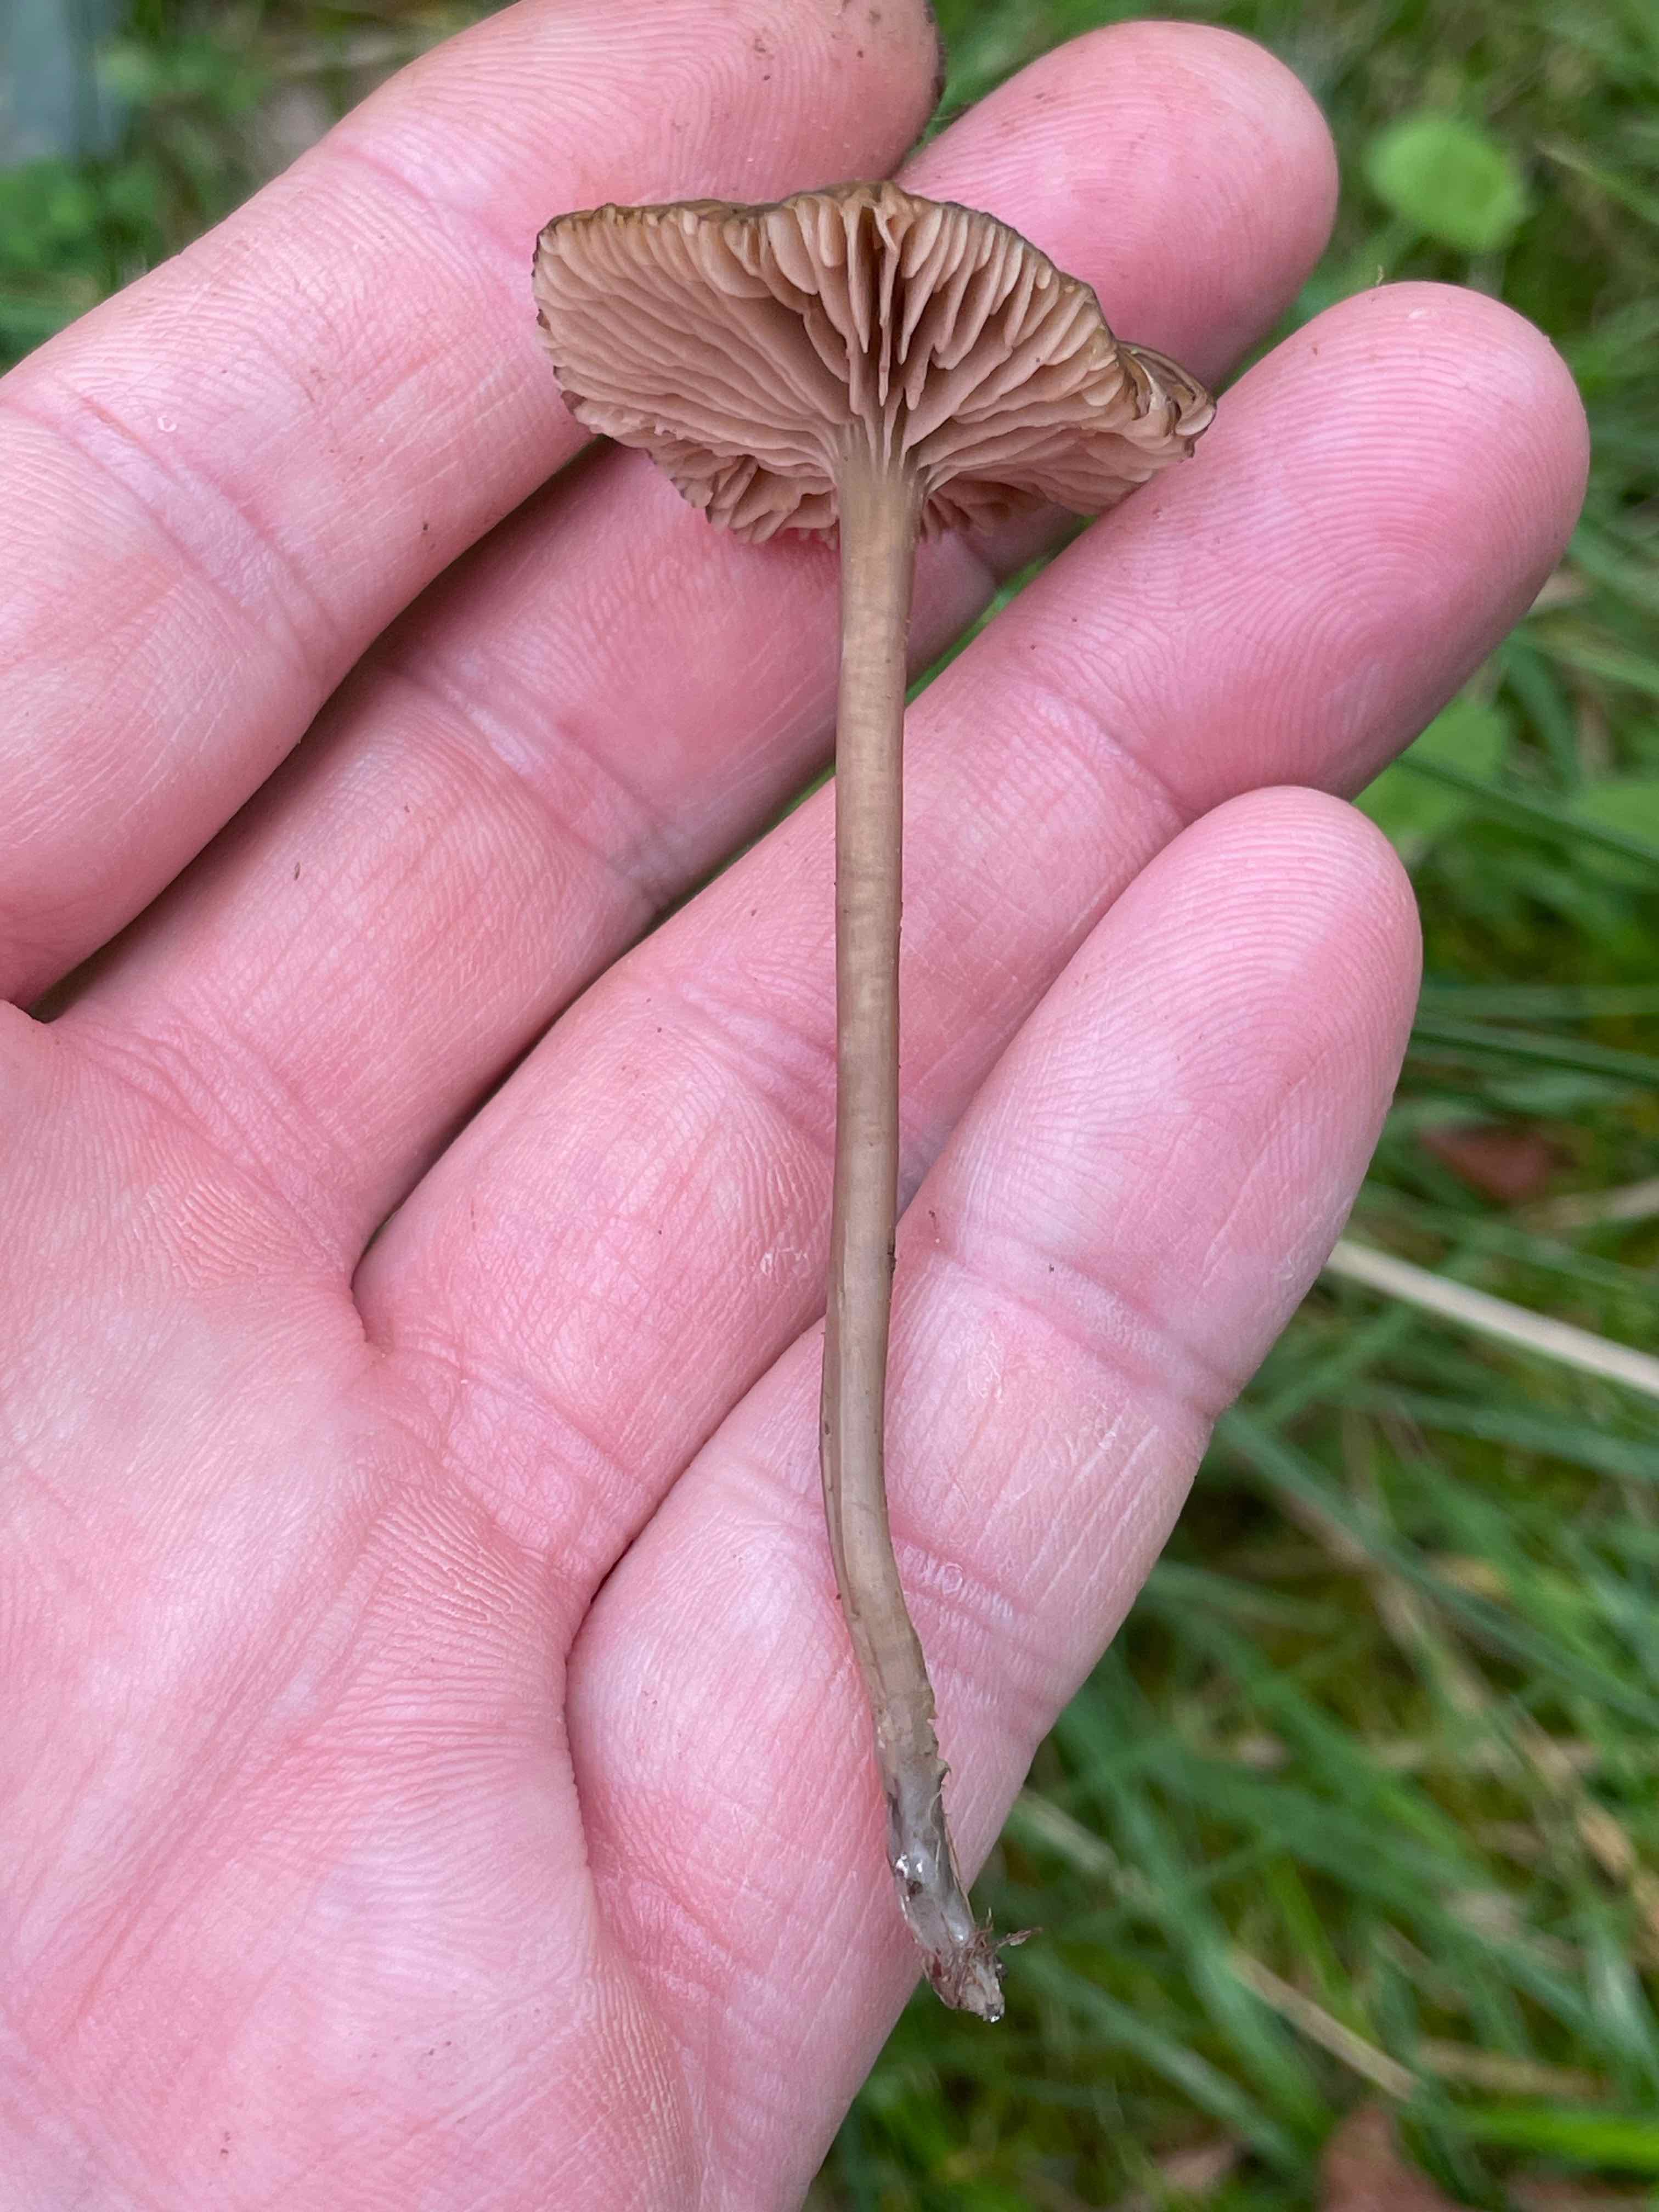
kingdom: Fungi
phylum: Basidiomycota
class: Agaricomycetes
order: Agaricales
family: Entolomataceae
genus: Entoloma
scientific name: Entoloma
